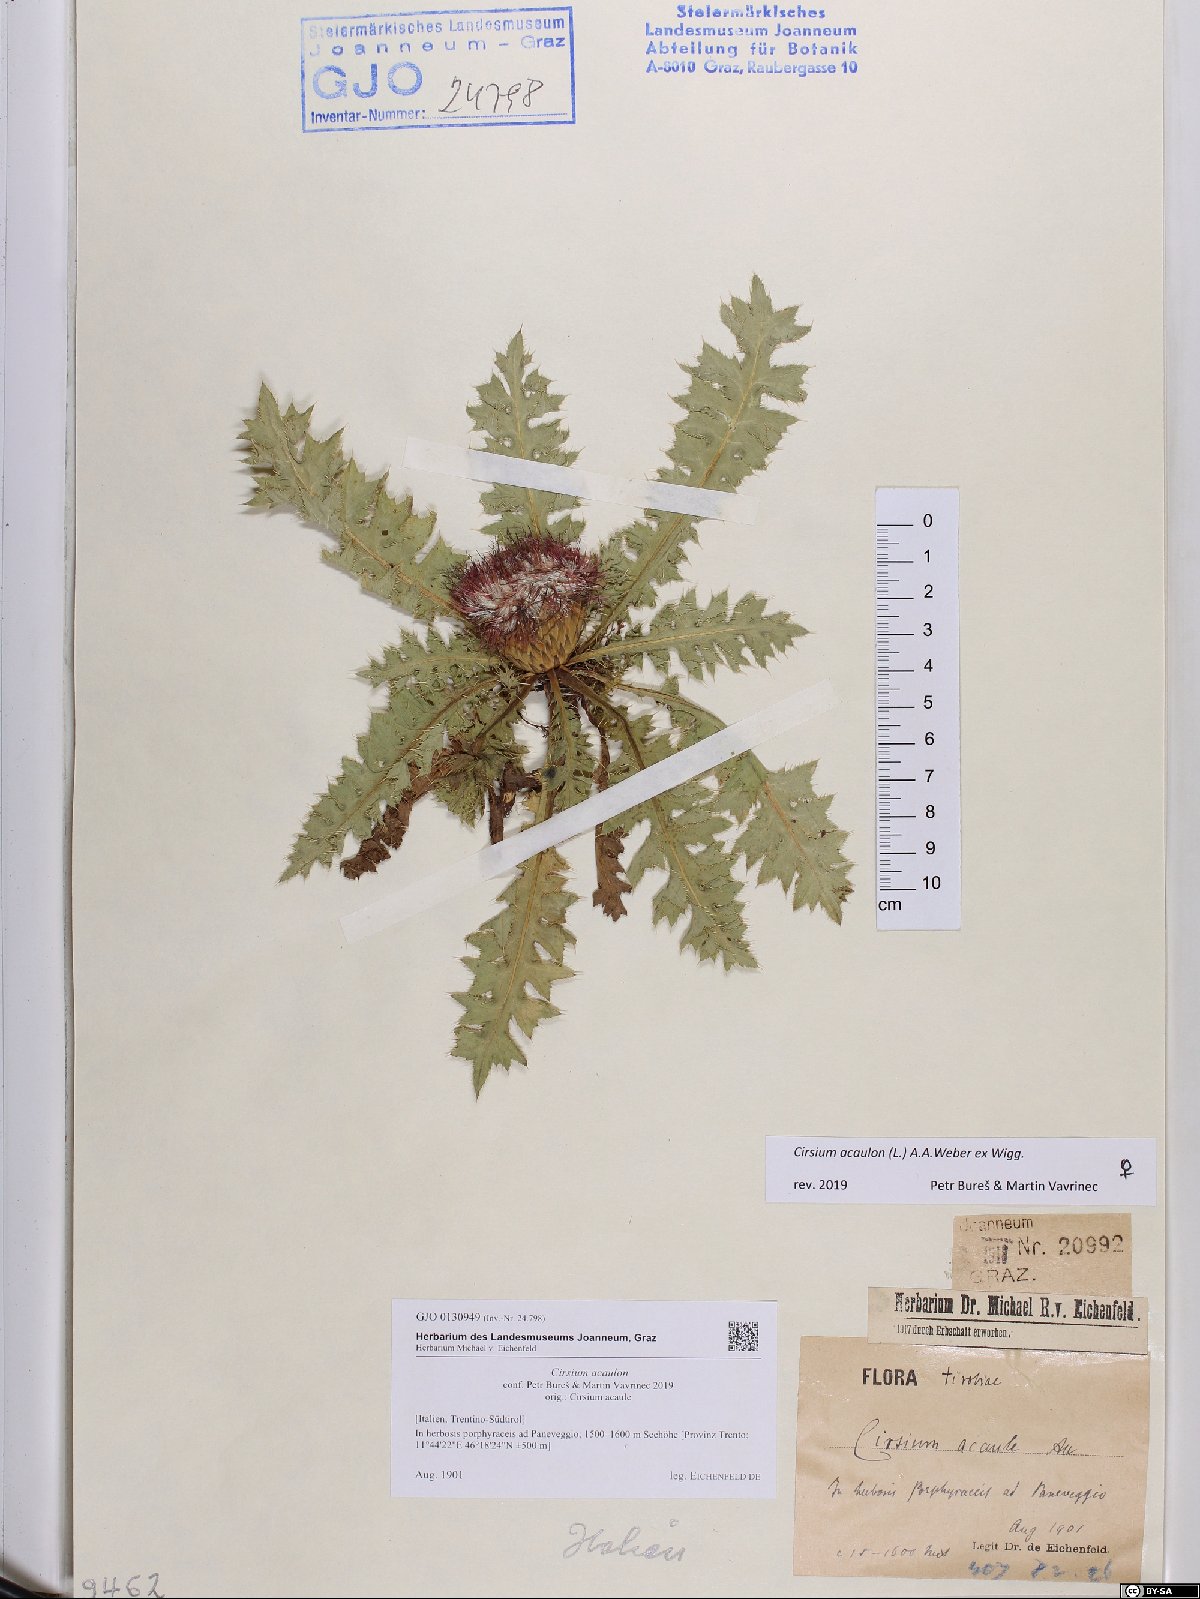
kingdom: Plantae
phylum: Tracheophyta
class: Magnoliopsida
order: Asterales
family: Asteraceae
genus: Cirsium
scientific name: Cirsium acaulon
